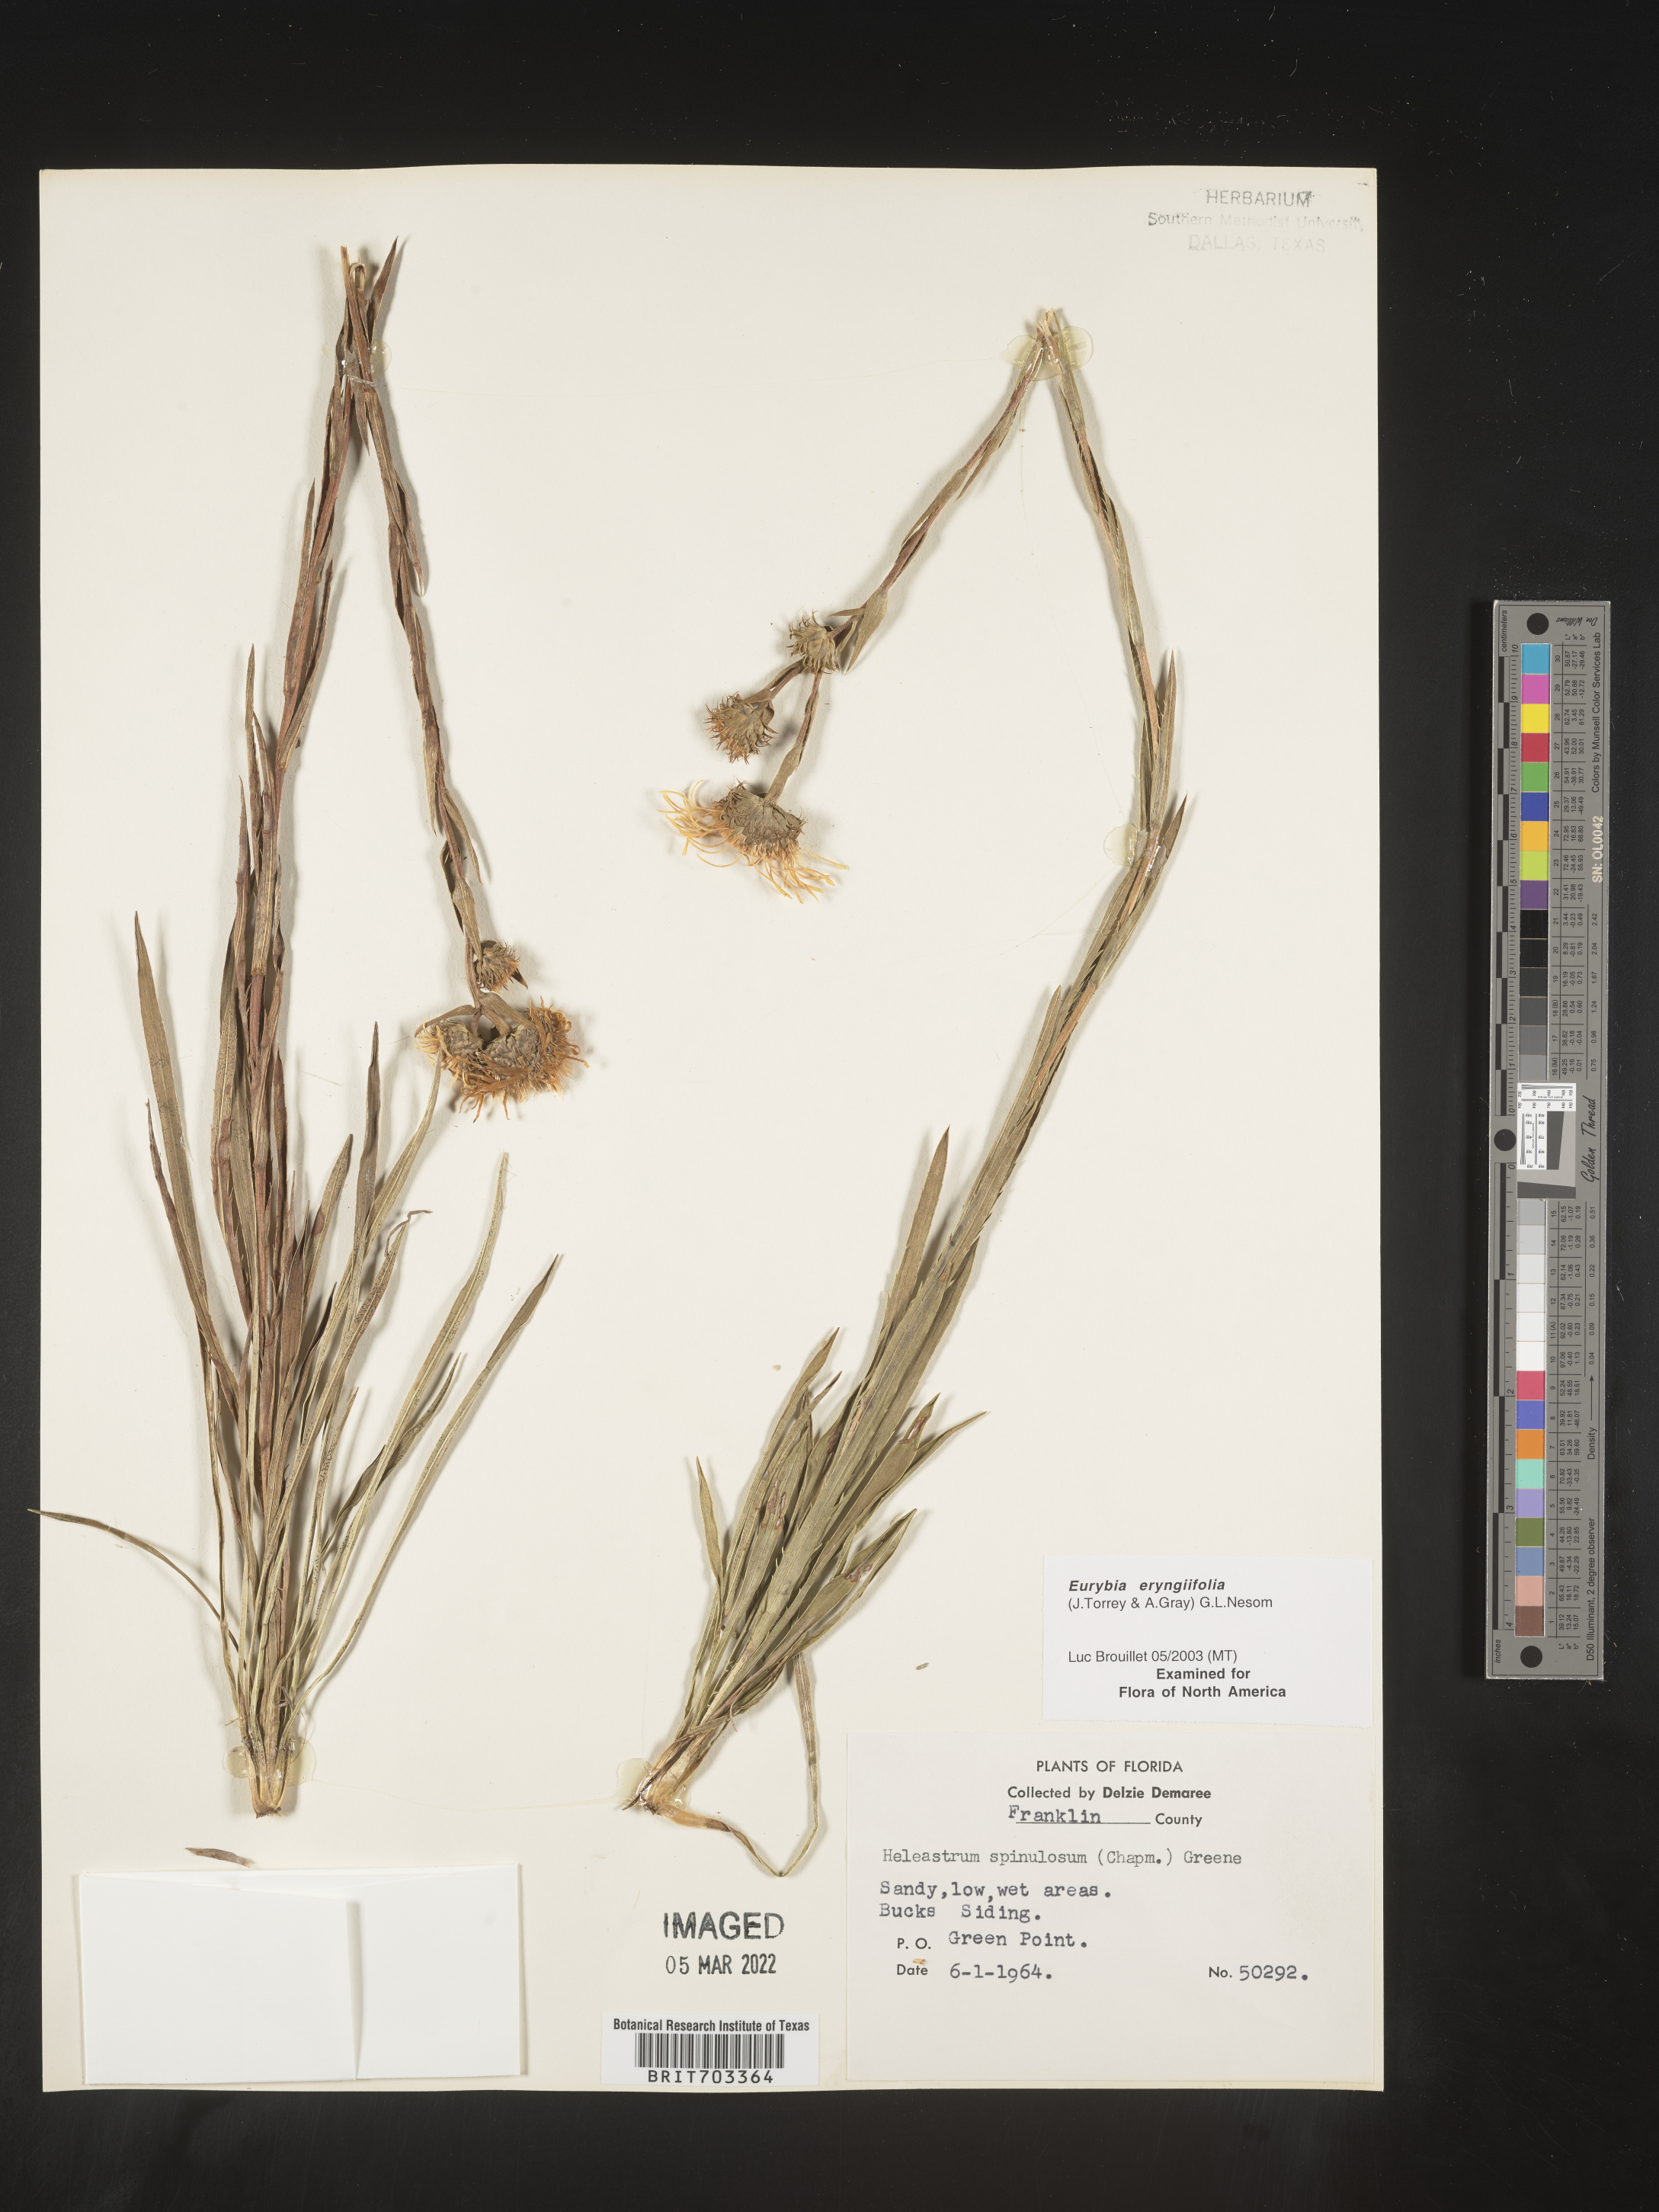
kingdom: Plantae
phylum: Tracheophyta
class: Magnoliopsida
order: Asterales
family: Asteraceae
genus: Eurybia
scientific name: Eurybia eryngiifolia
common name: Thistle-leaf aster
